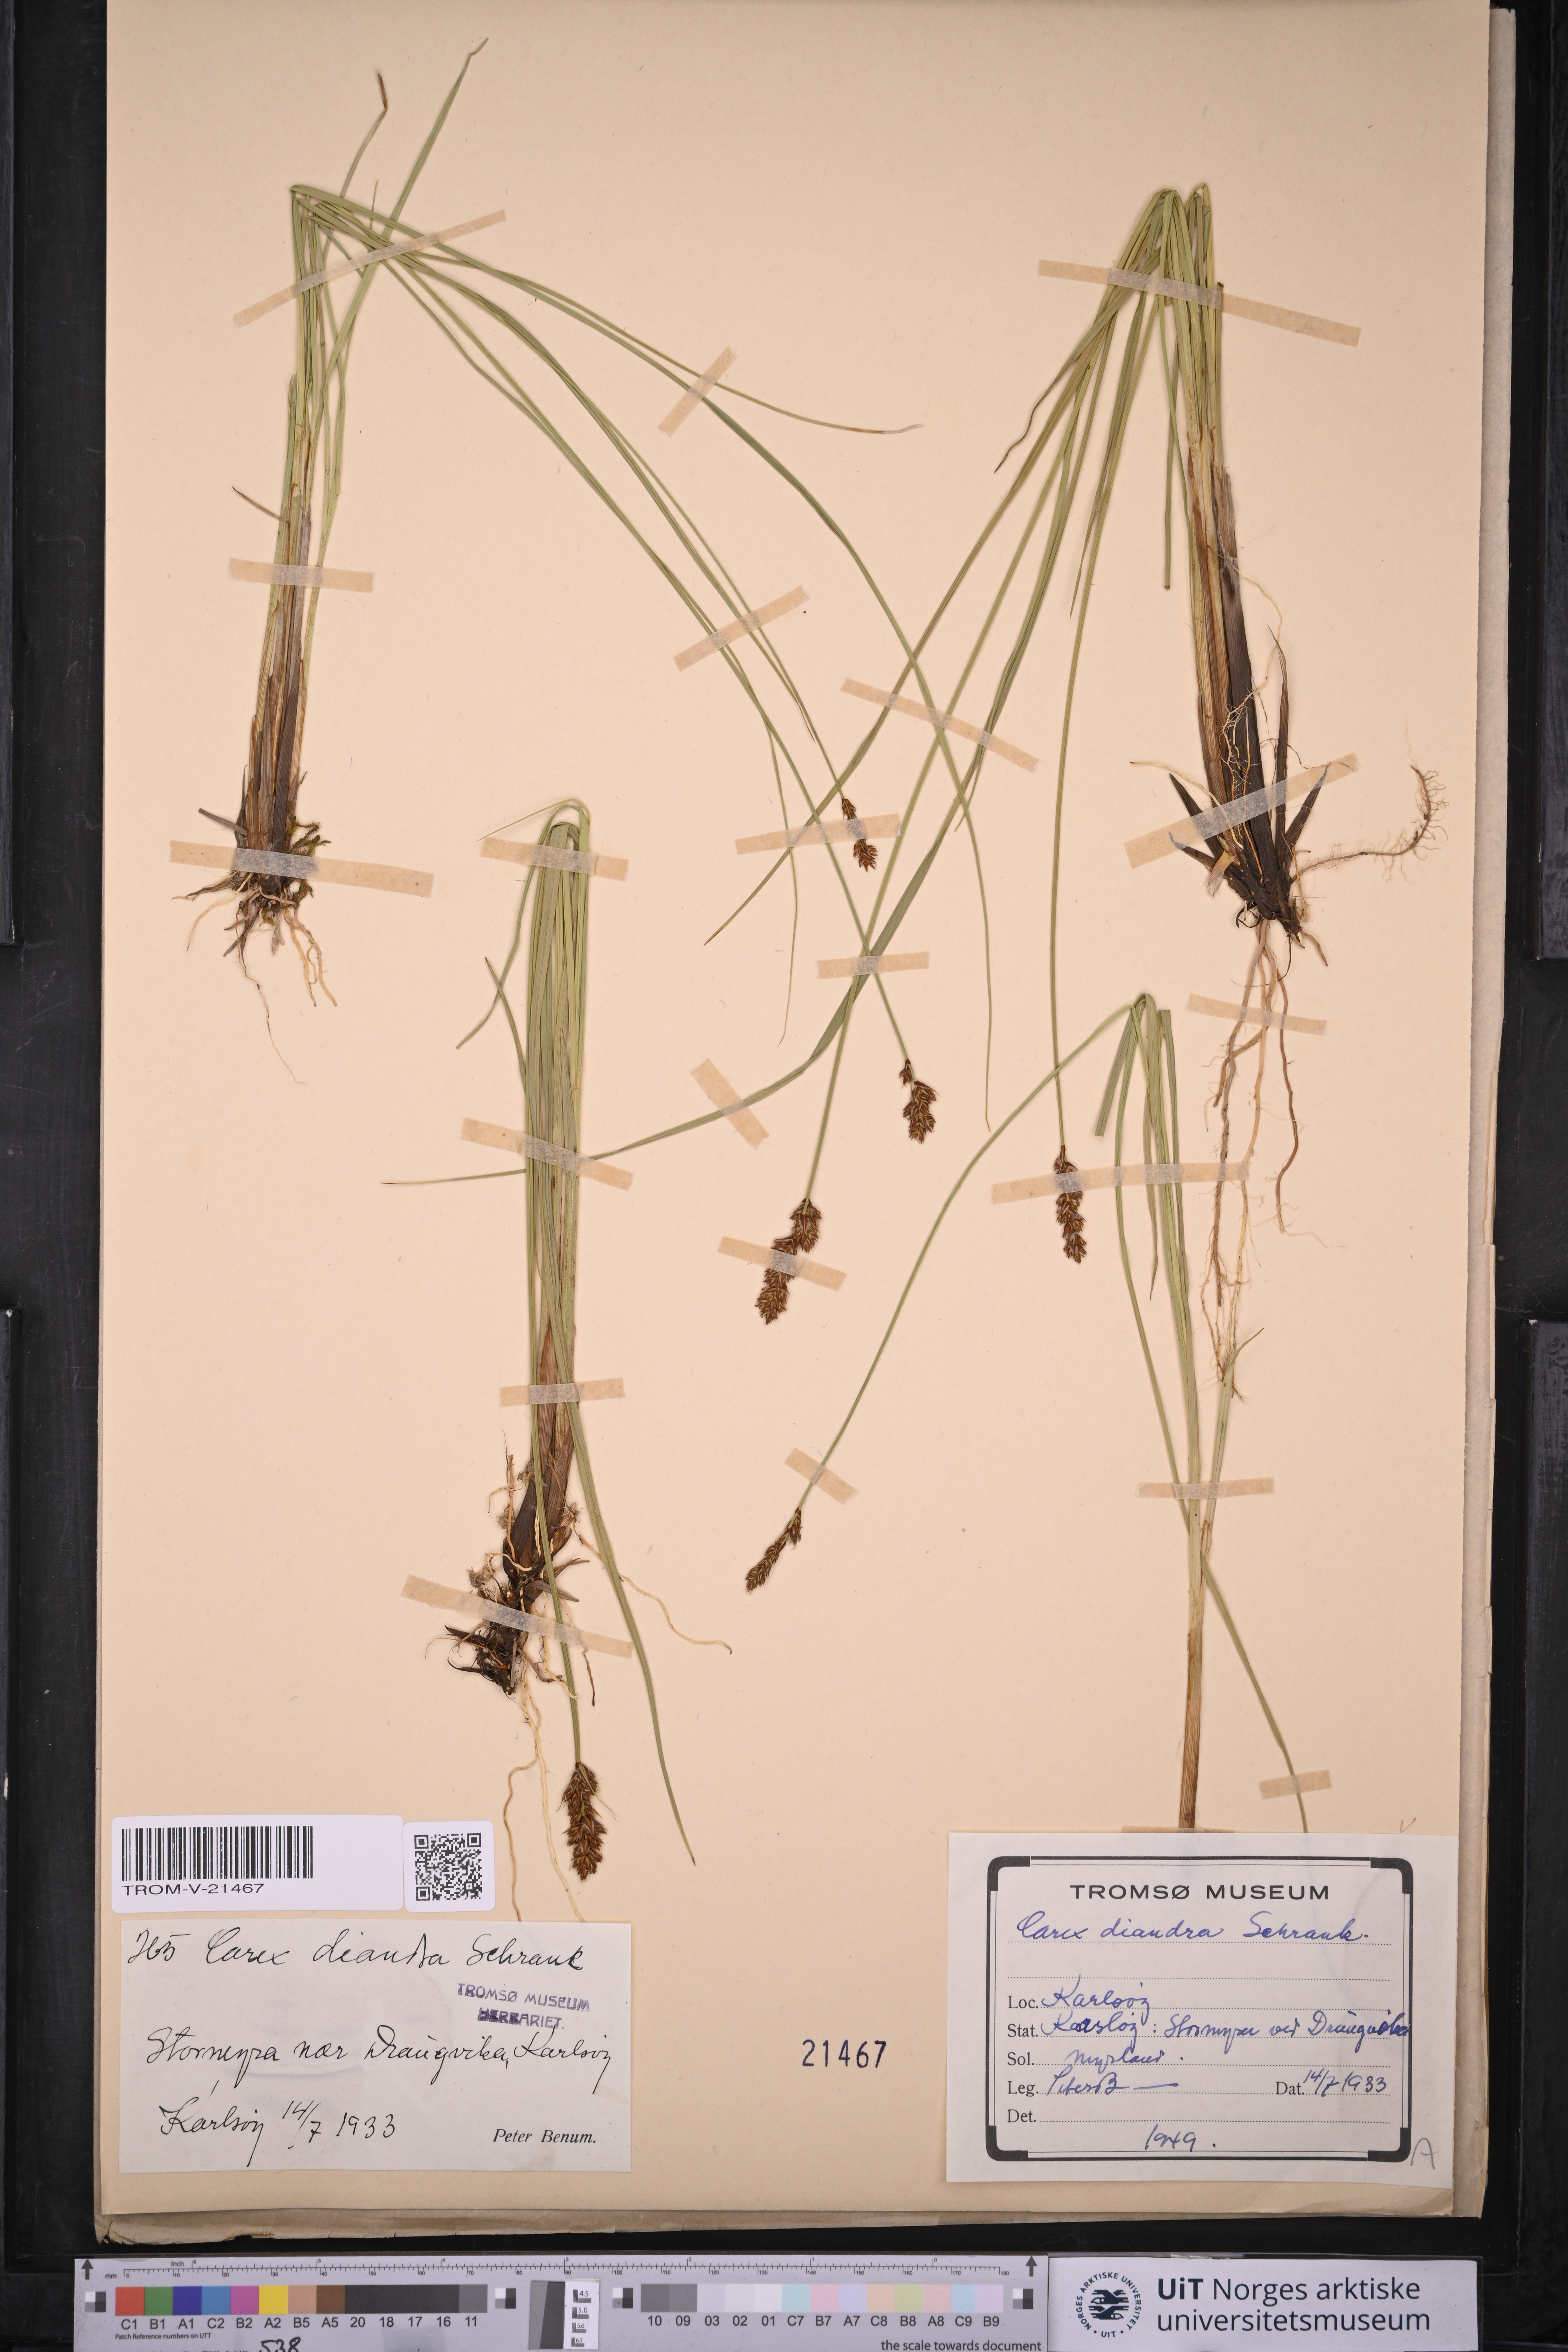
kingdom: Plantae
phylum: Tracheophyta
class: Liliopsida
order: Poales
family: Cyperaceae
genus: Carex
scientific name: Carex diandra
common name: Lesser tussock-sedge
